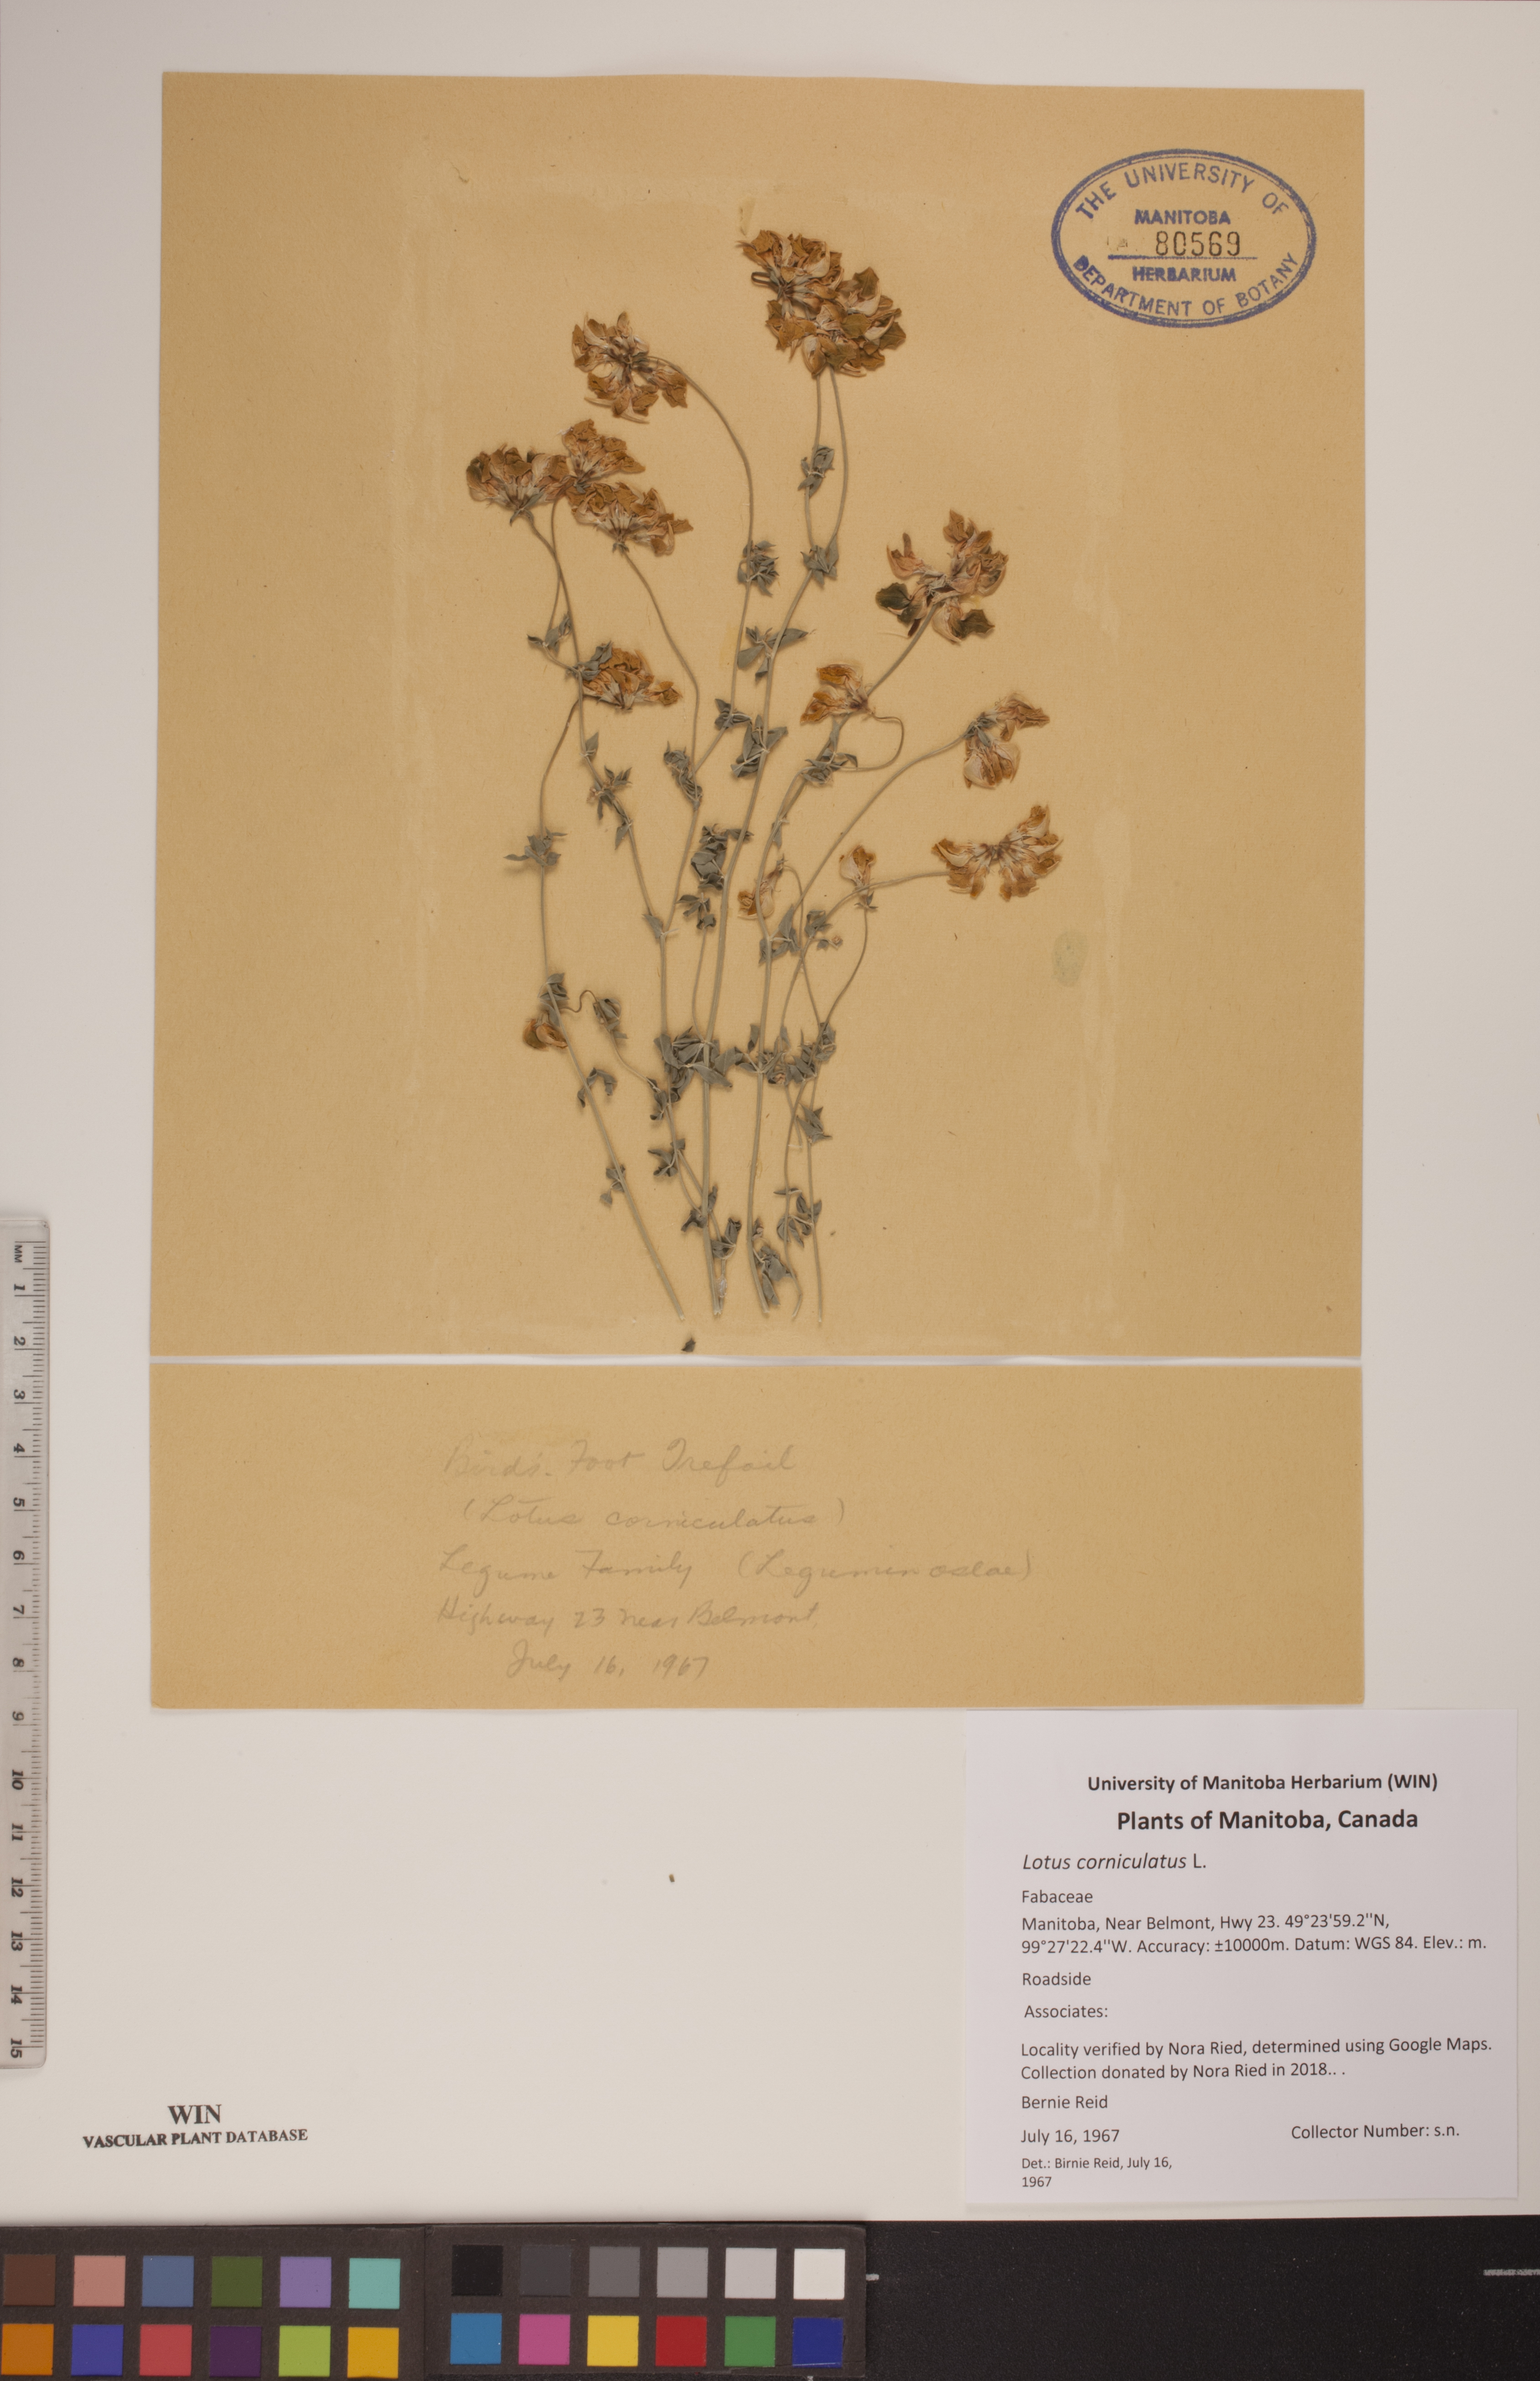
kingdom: Plantae
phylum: Tracheophyta
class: Magnoliopsida
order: Fabales
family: Fabaceae
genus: Lotus
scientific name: Lotus corniculatus
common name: Common bird's-foot-trefoil
